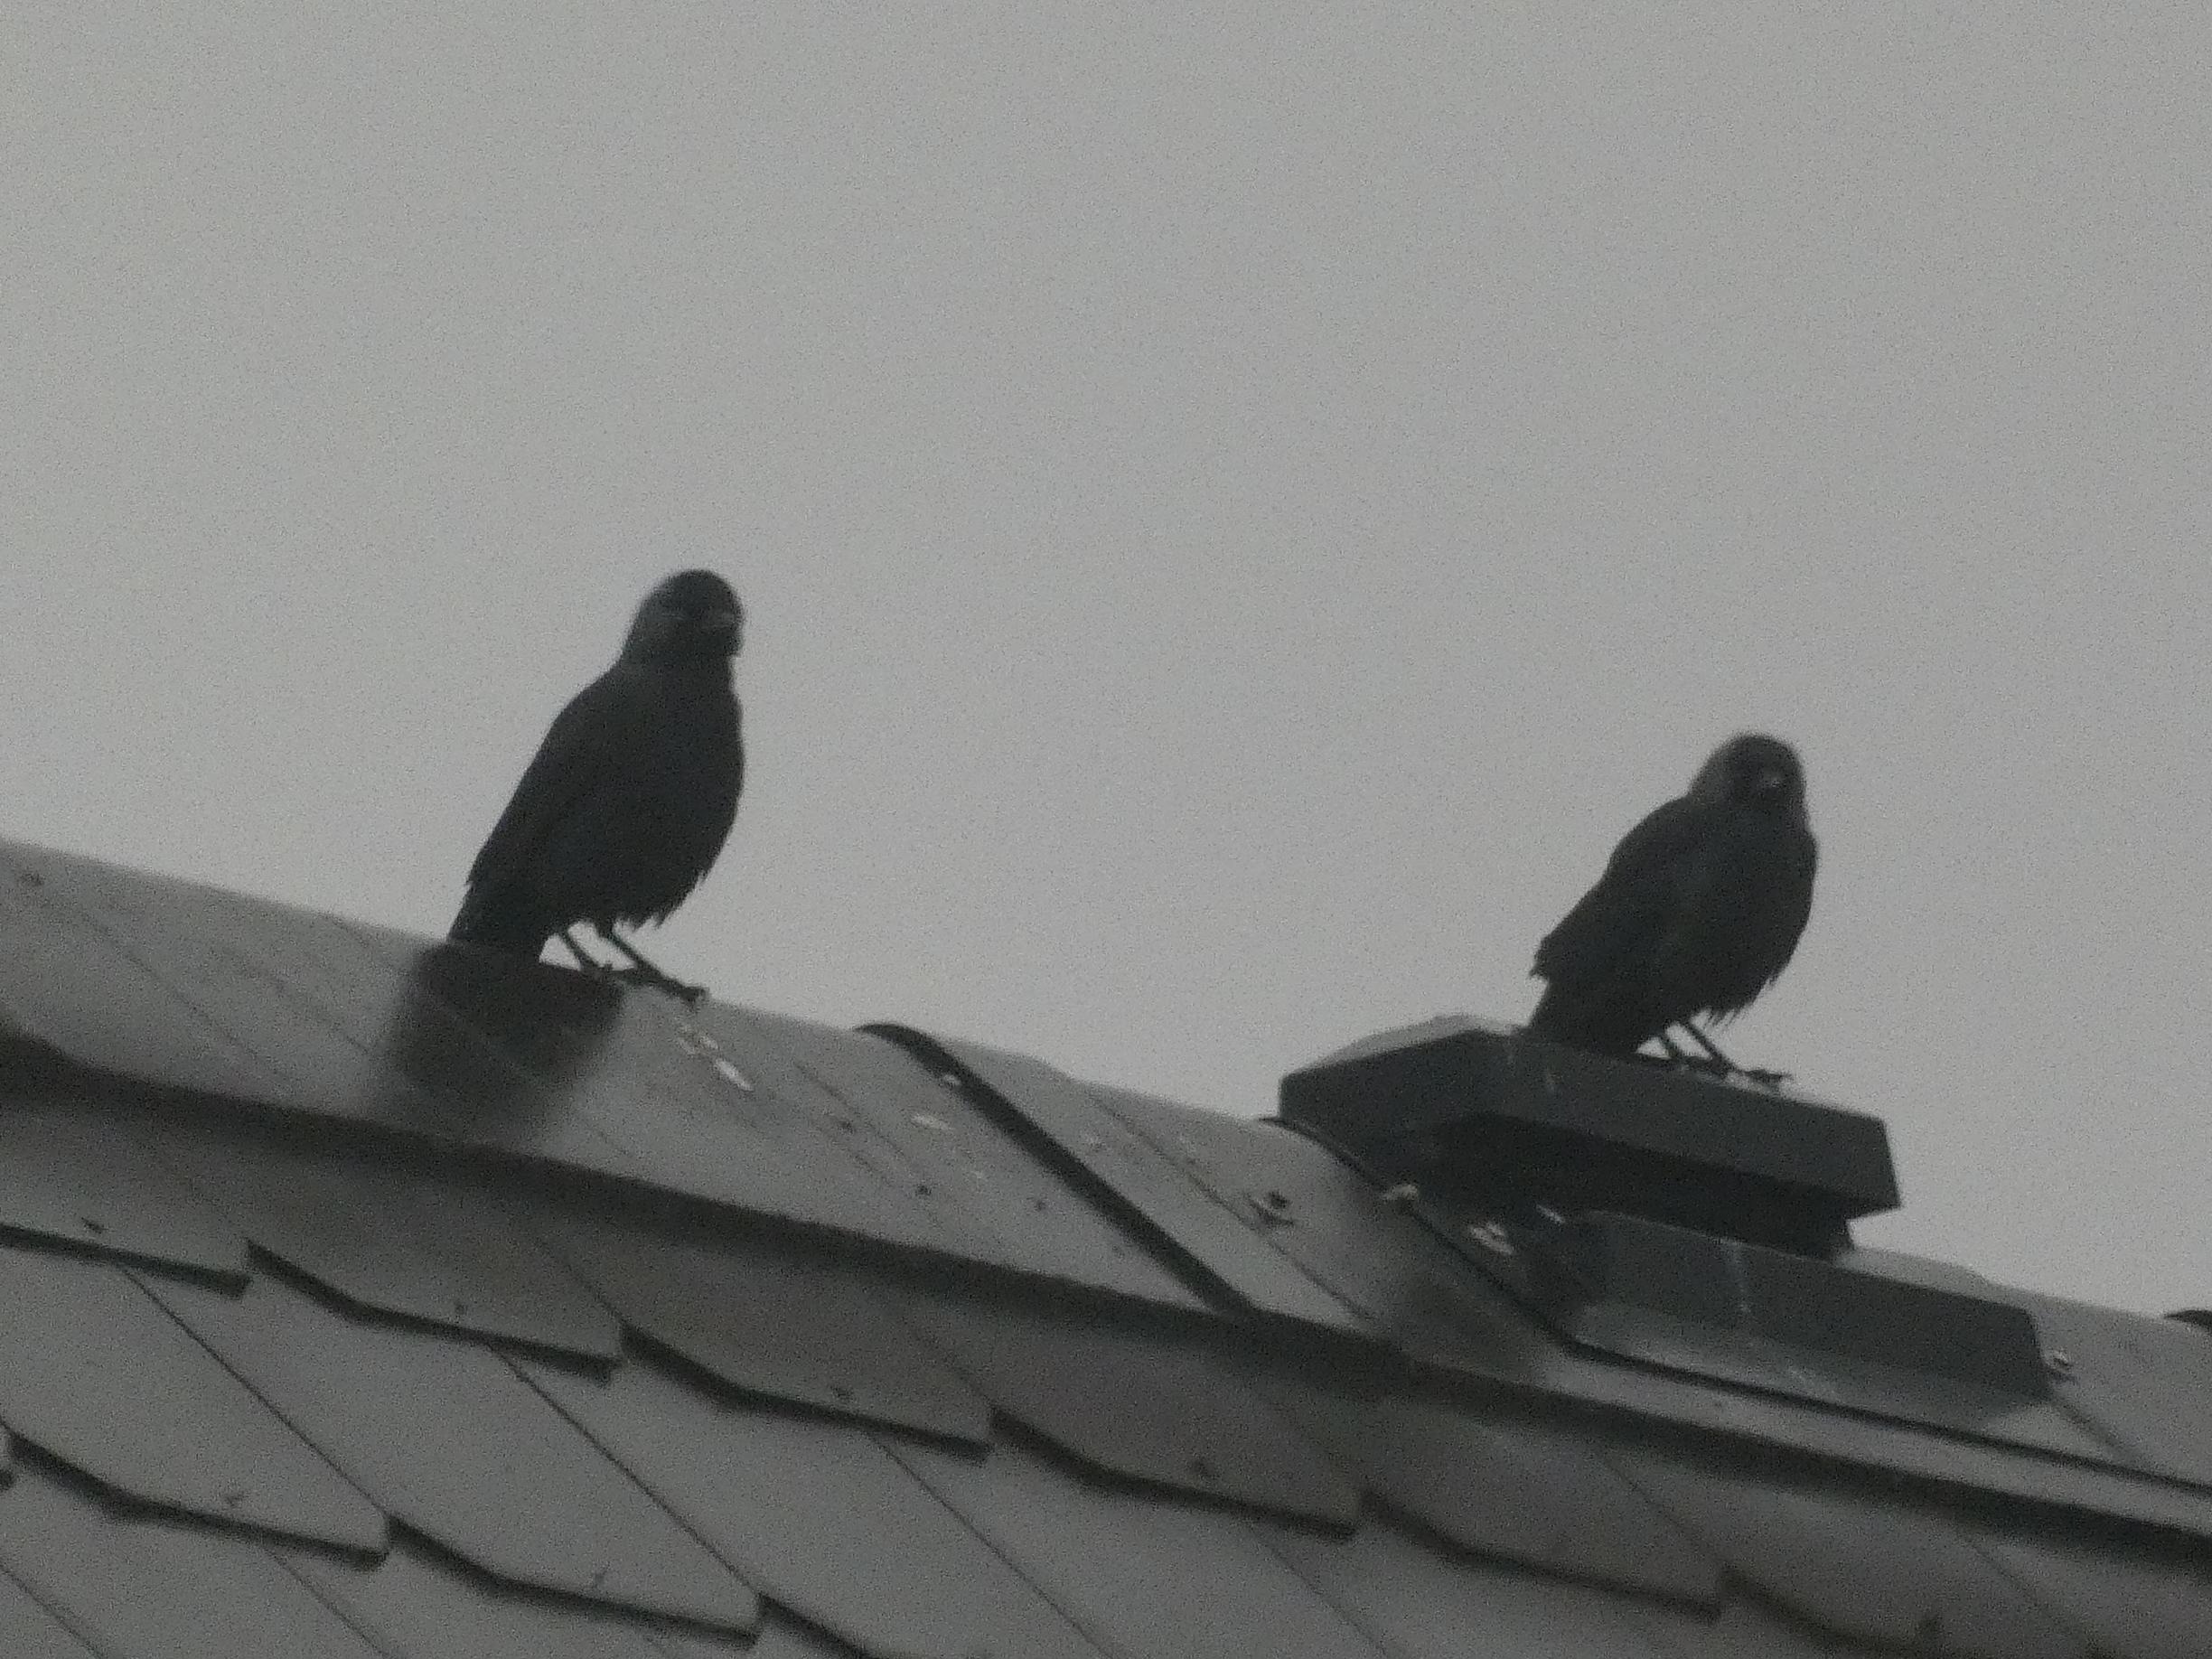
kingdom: Animalia
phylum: Chordata
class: Aves
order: Passeriformes
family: Corvidae
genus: Coloeus
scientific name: Coloeus monedula
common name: Allike
